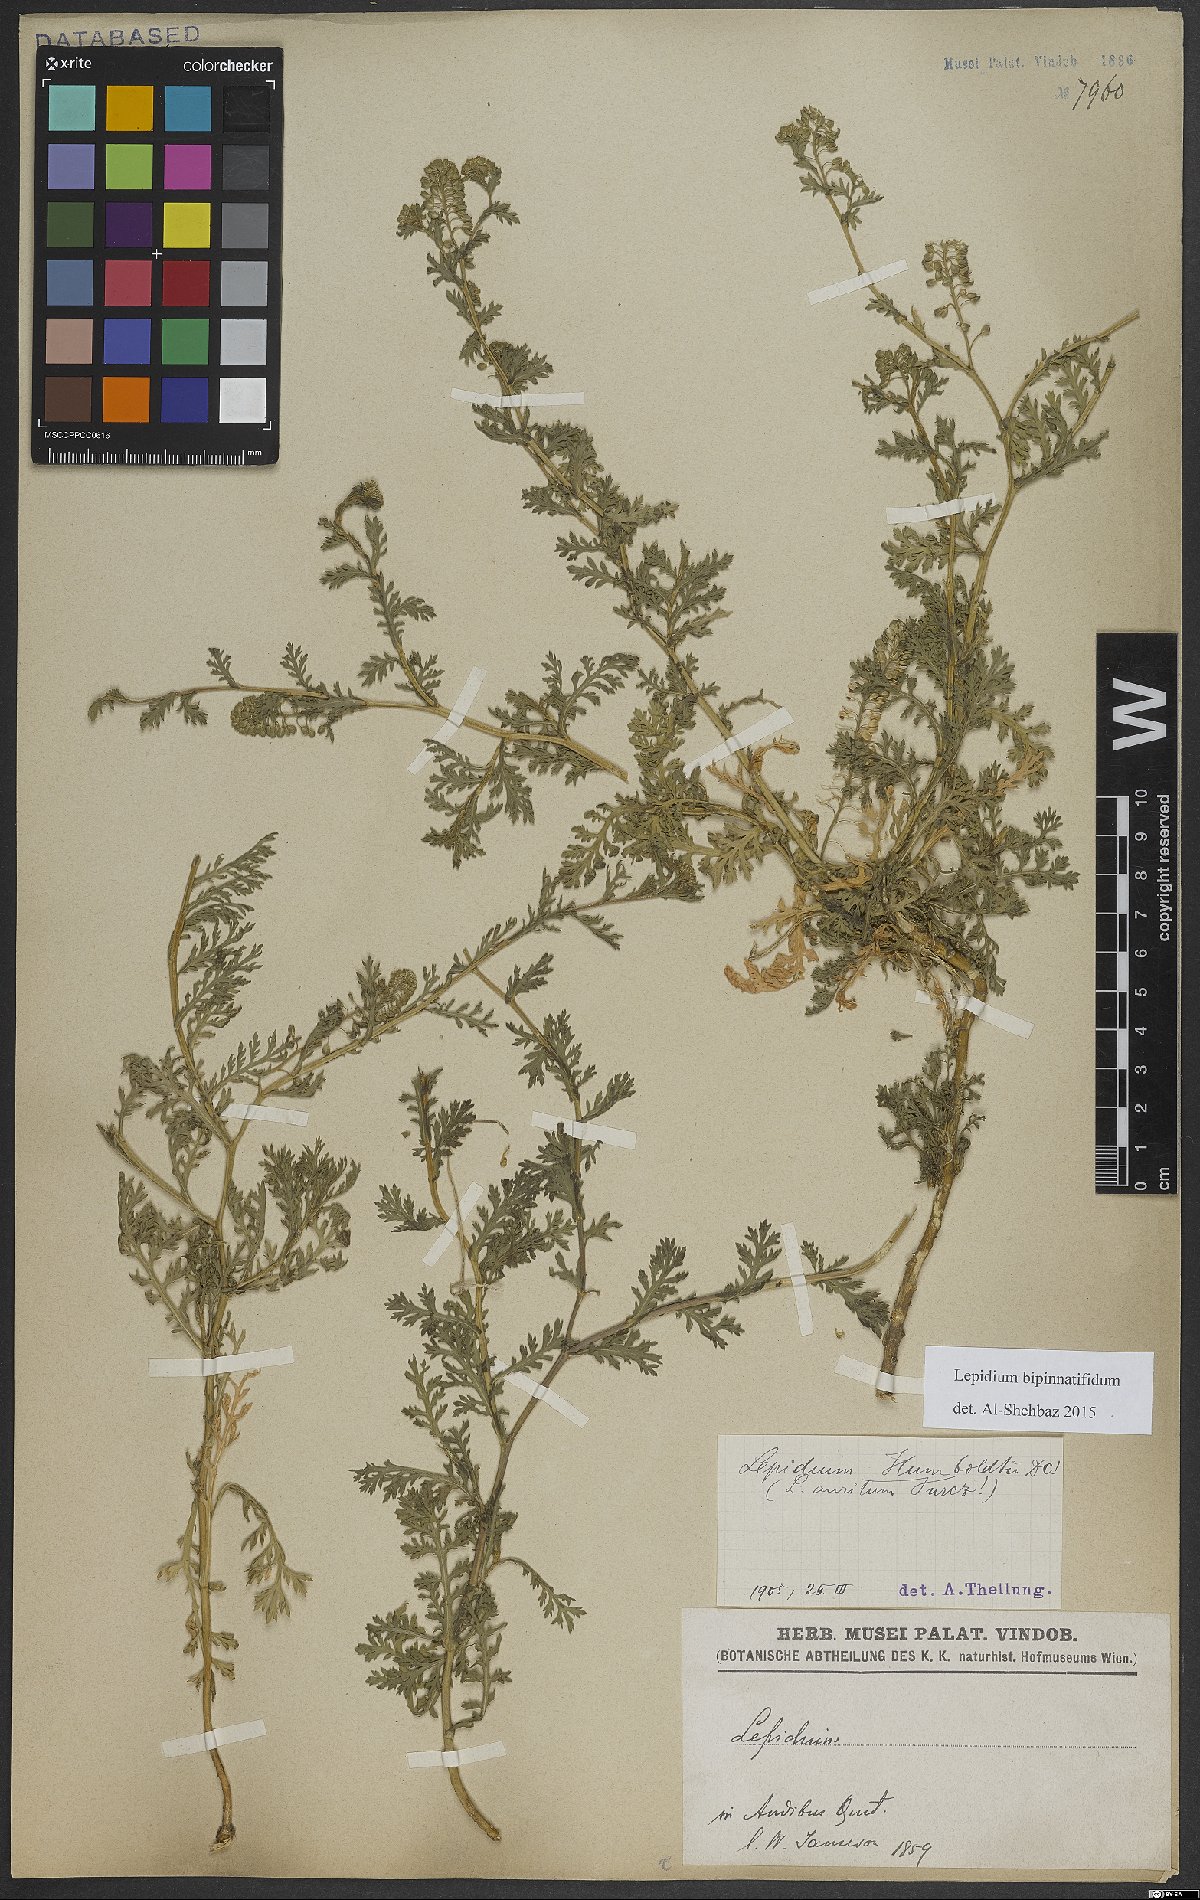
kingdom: Plantae
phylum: Tracheophyta
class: Magnoliopsida
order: Brassicales
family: Brassicaceae
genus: Lepidium
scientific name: Lepidium bipinnatifidum
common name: Wayside pepperwort
